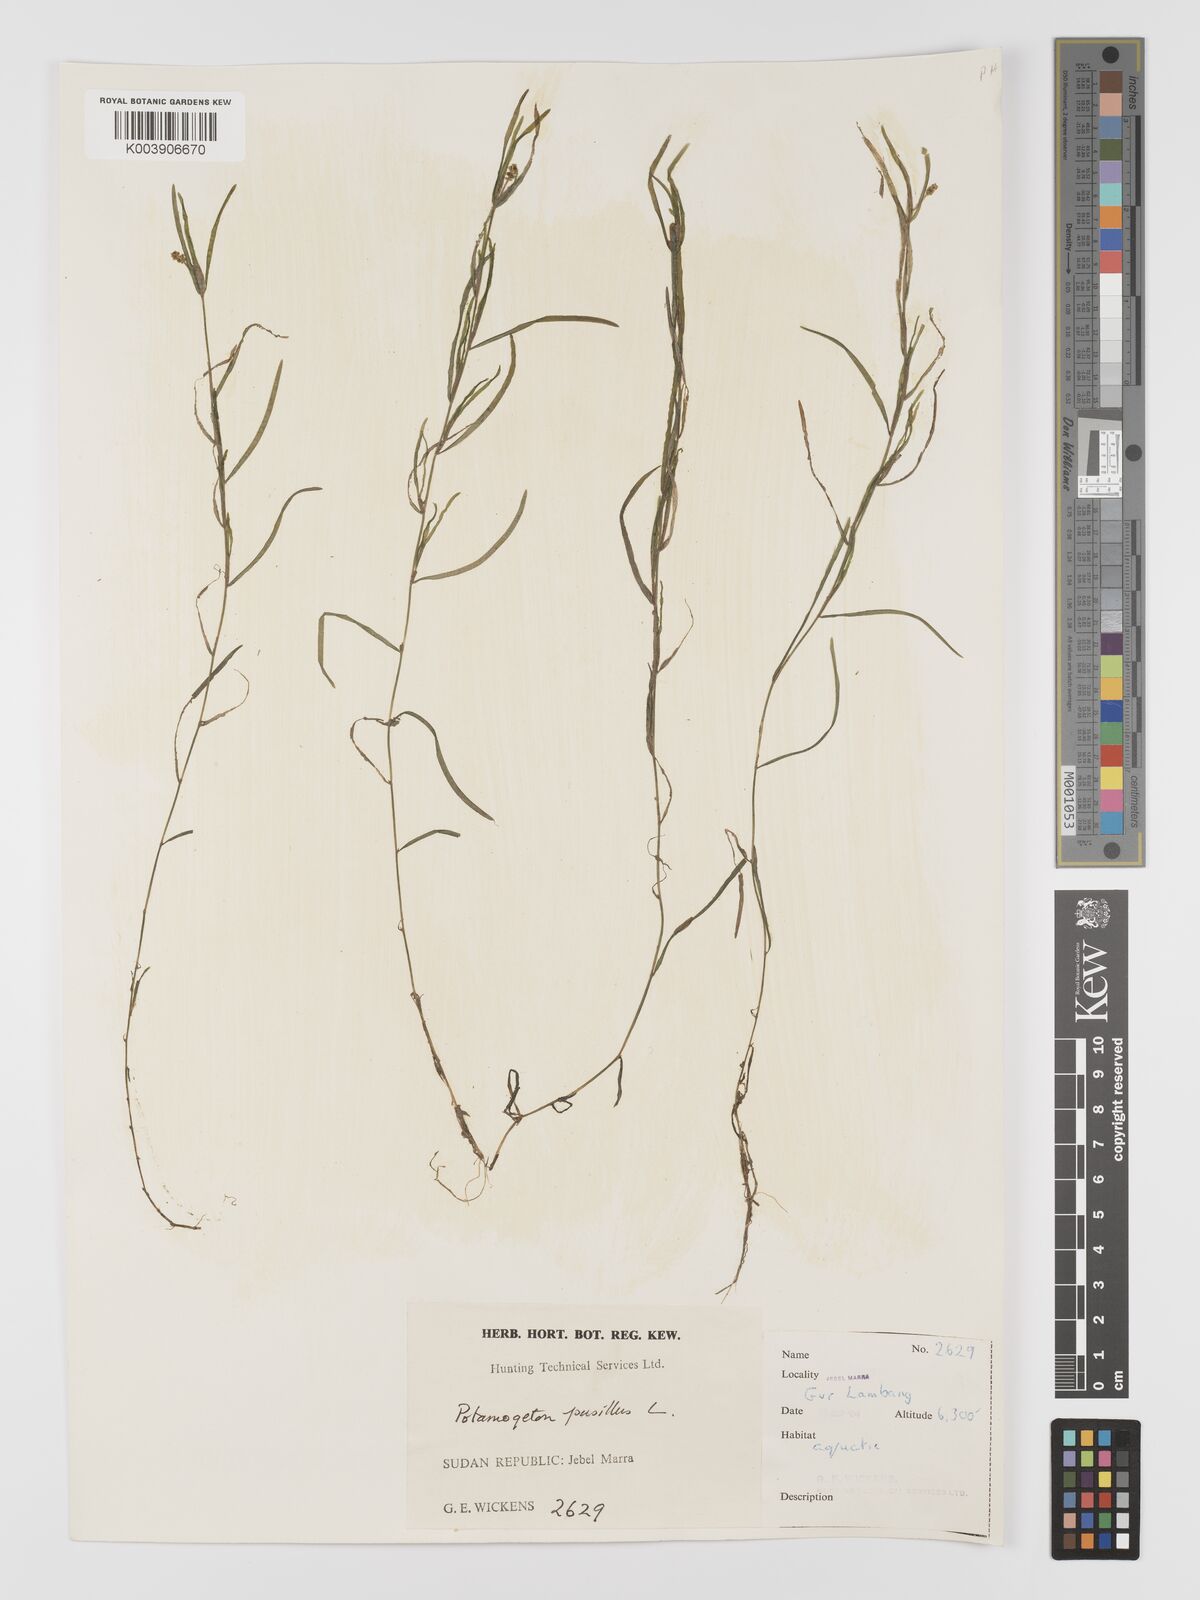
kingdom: Plantae
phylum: Tracheophyta
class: Liliopsida
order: Alismatales
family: Potamogetonaceae
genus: Potamogeton
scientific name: Potamogeton pusillus
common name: Lesser pondweed
